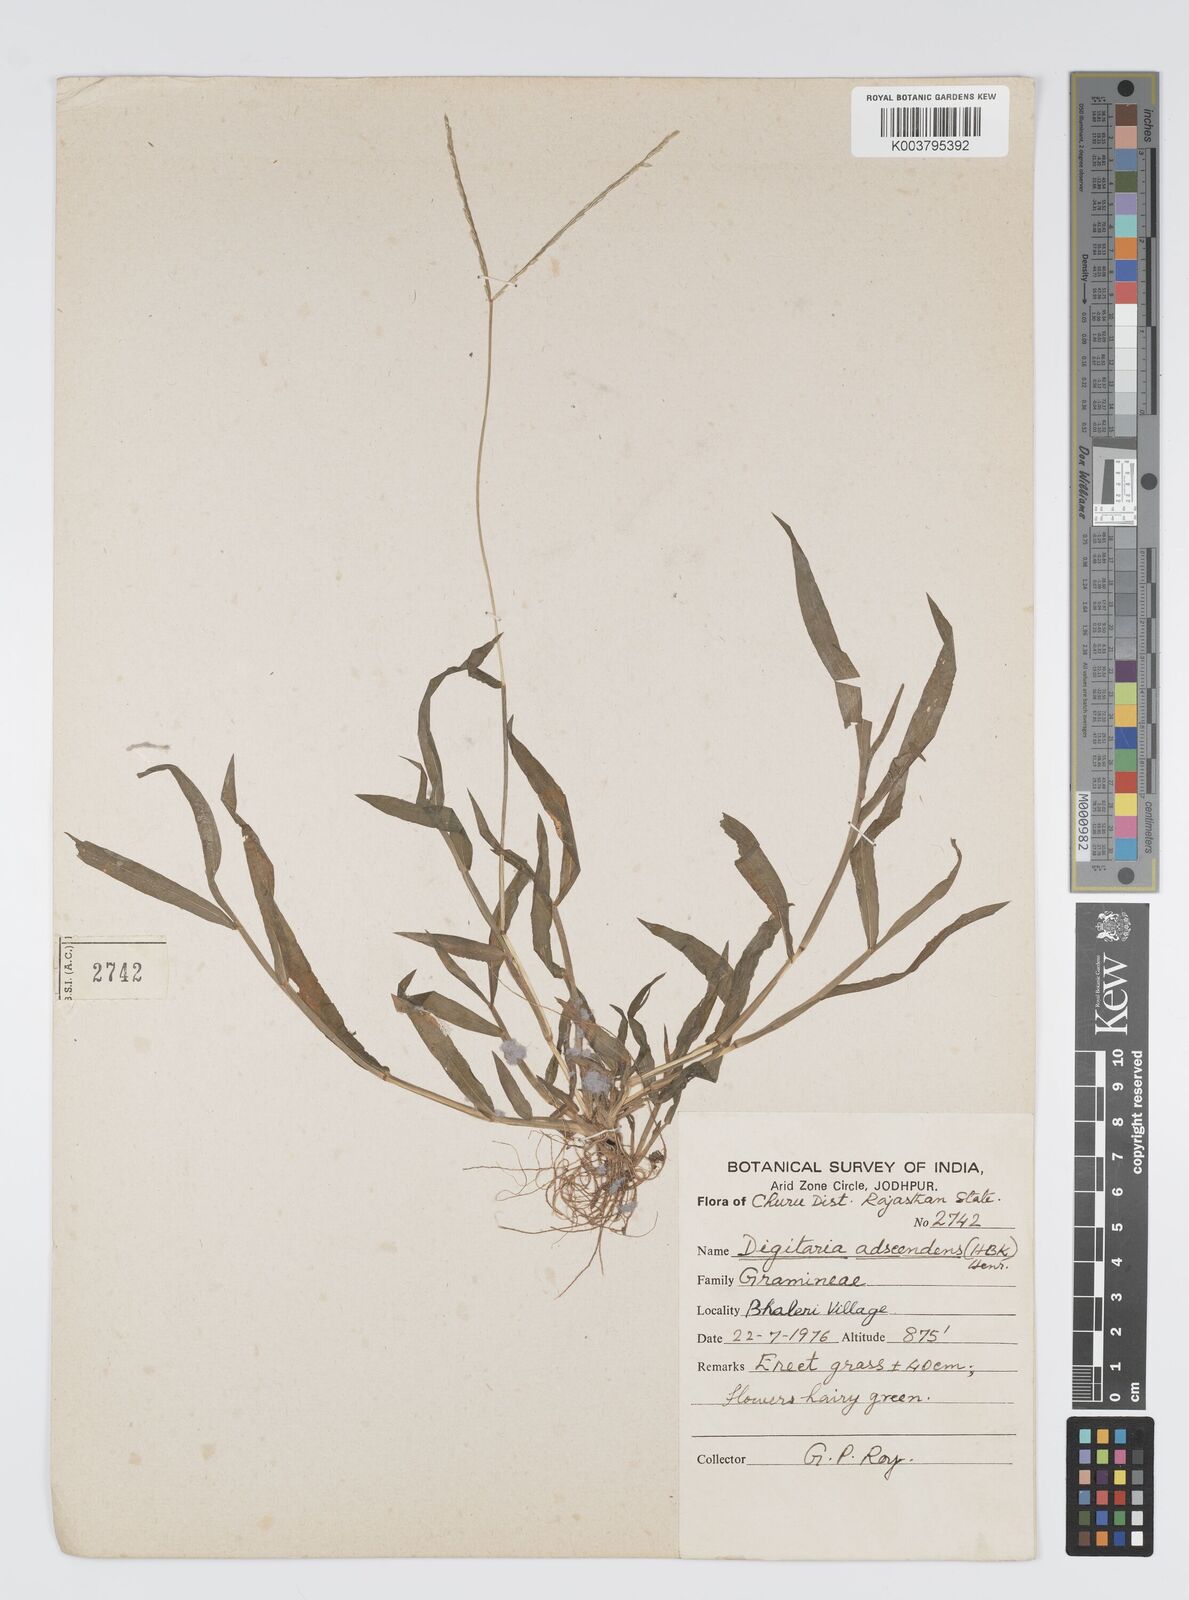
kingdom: Plantae
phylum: Tracheophyta
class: Liliopsida
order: Poales
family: Poaceae
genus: Digitaria
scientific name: Digitaria ciliaris
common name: Tropical finger-grass
